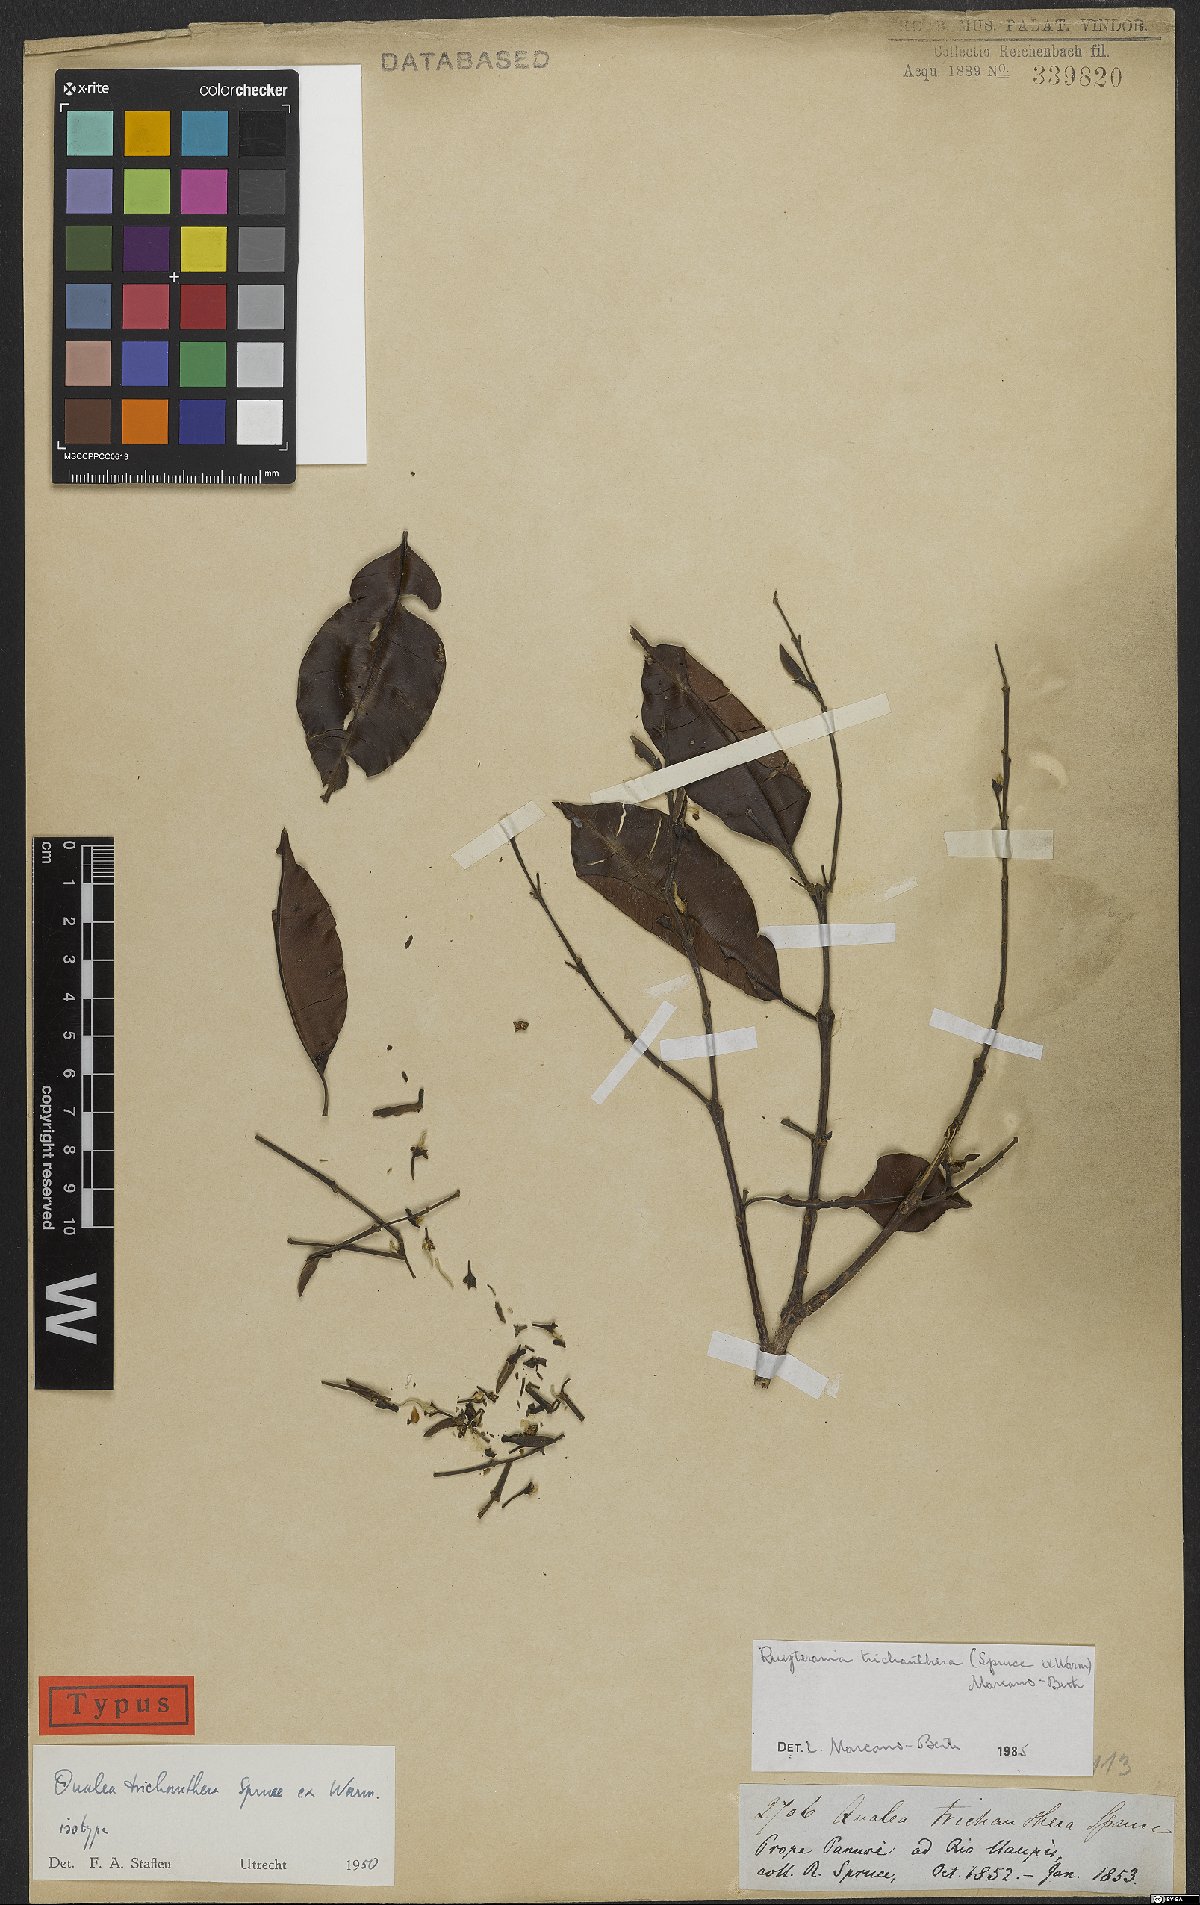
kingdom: Plantae
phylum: Tracheophyta
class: Magnoliopsida
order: Myrtales
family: Vochysiaceae
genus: Ruizterania
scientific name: Ruizterania trichanthera
